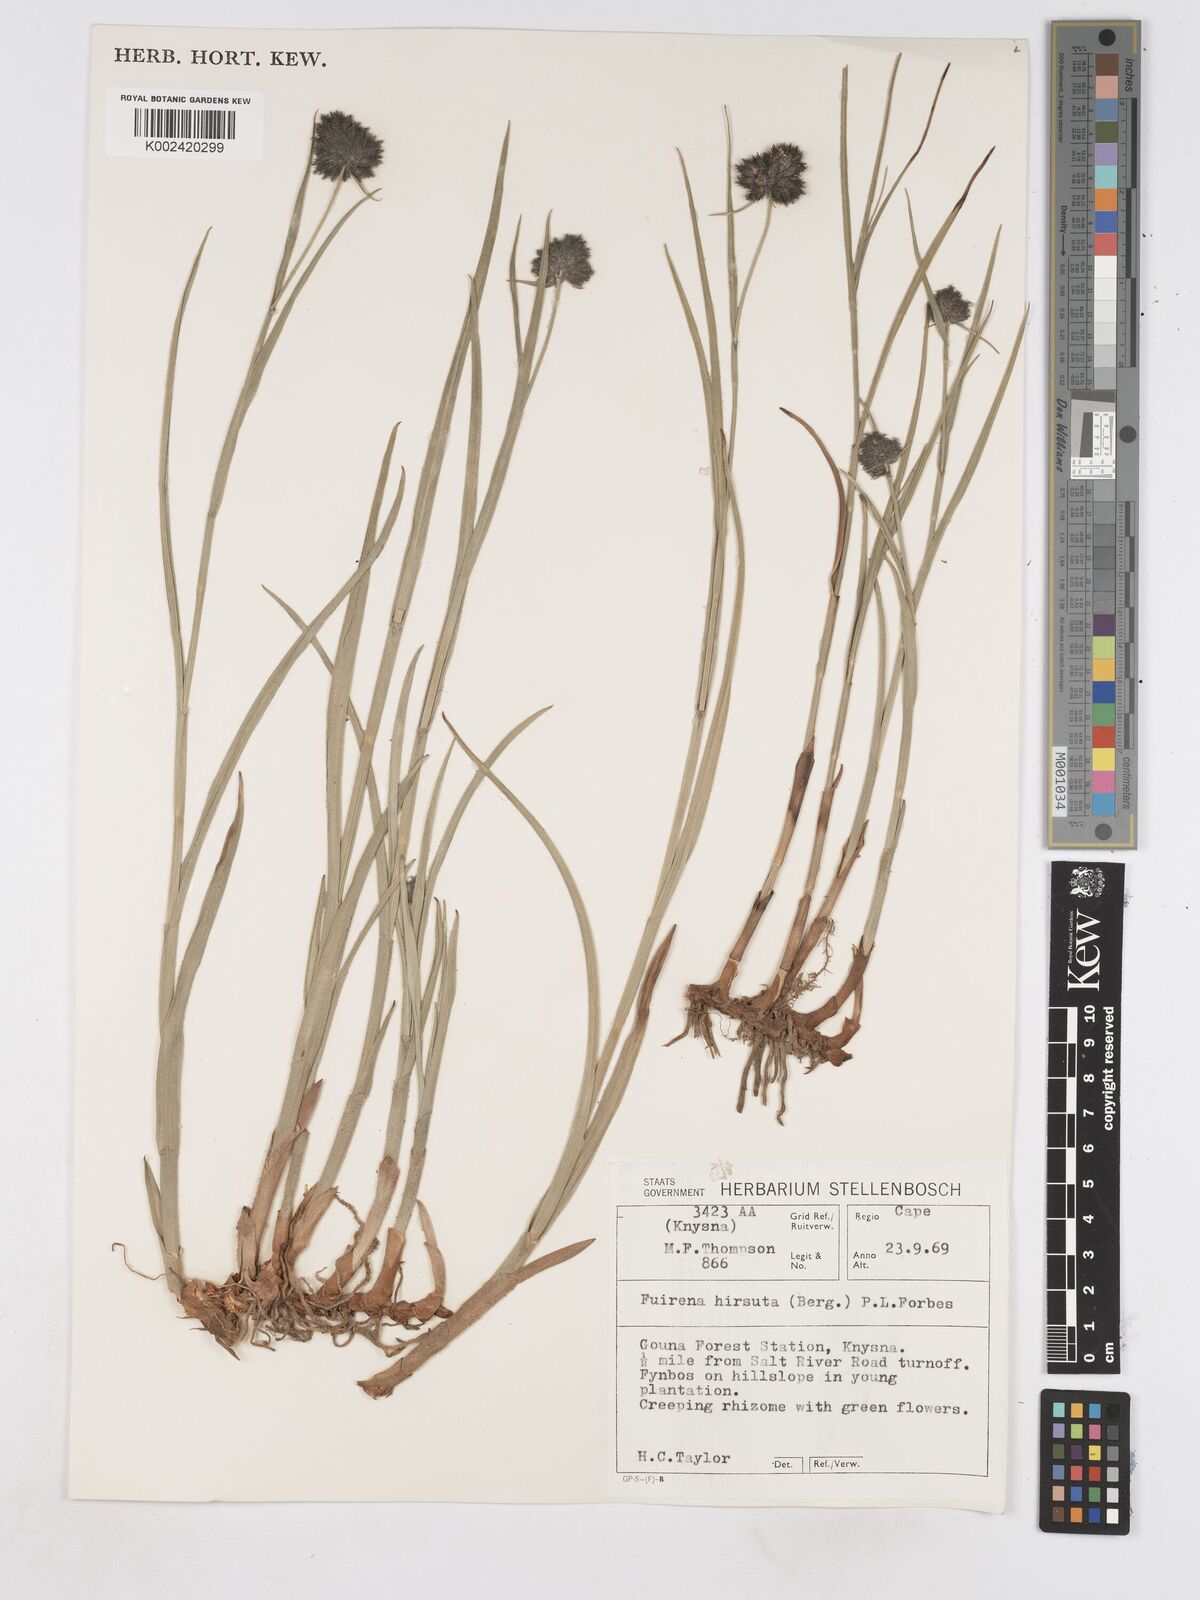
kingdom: Plantae
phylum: Tracheophyta
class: Liliopsida
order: Poales
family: Cyperaceae
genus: Fuirena
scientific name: Fuirena hirsuta
